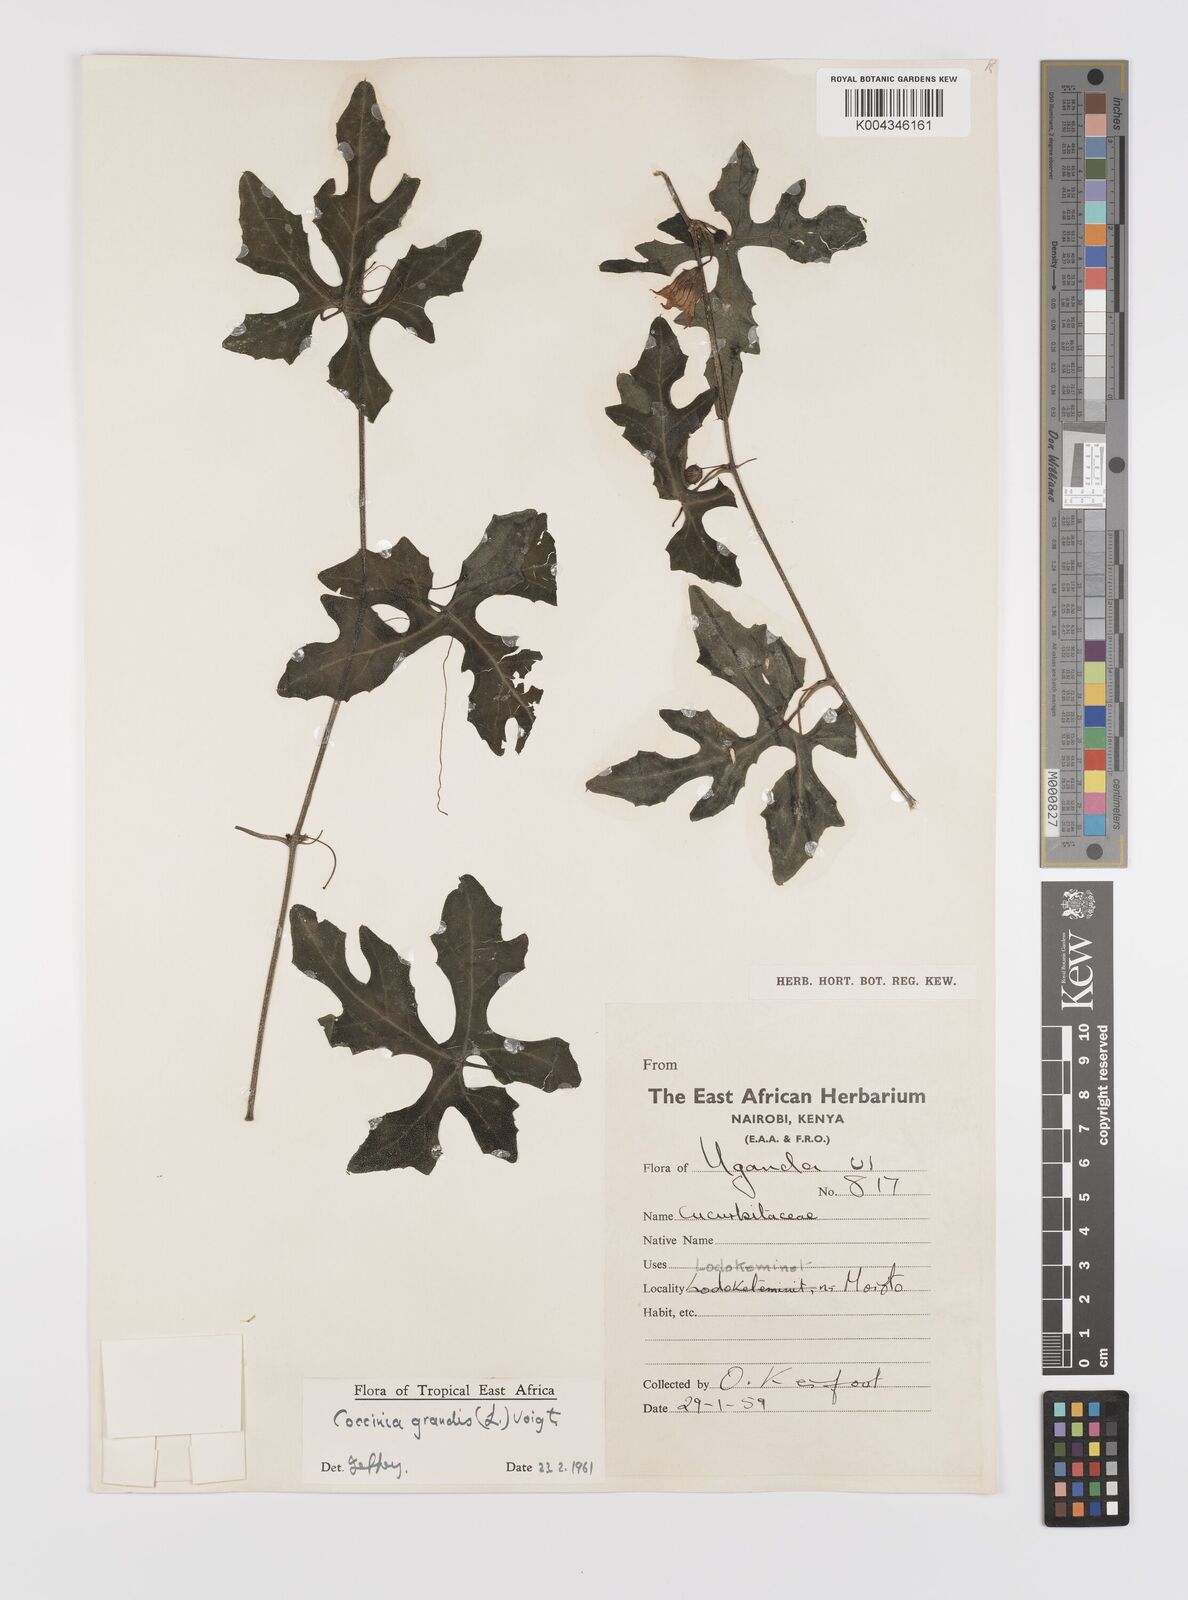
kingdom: Plantae
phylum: Tracheophyta
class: Magnoliopsida
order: Cucurbitales
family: Cucurbitaceae
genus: Coccinia
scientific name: Coccinia grandis
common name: Ivy gourd
